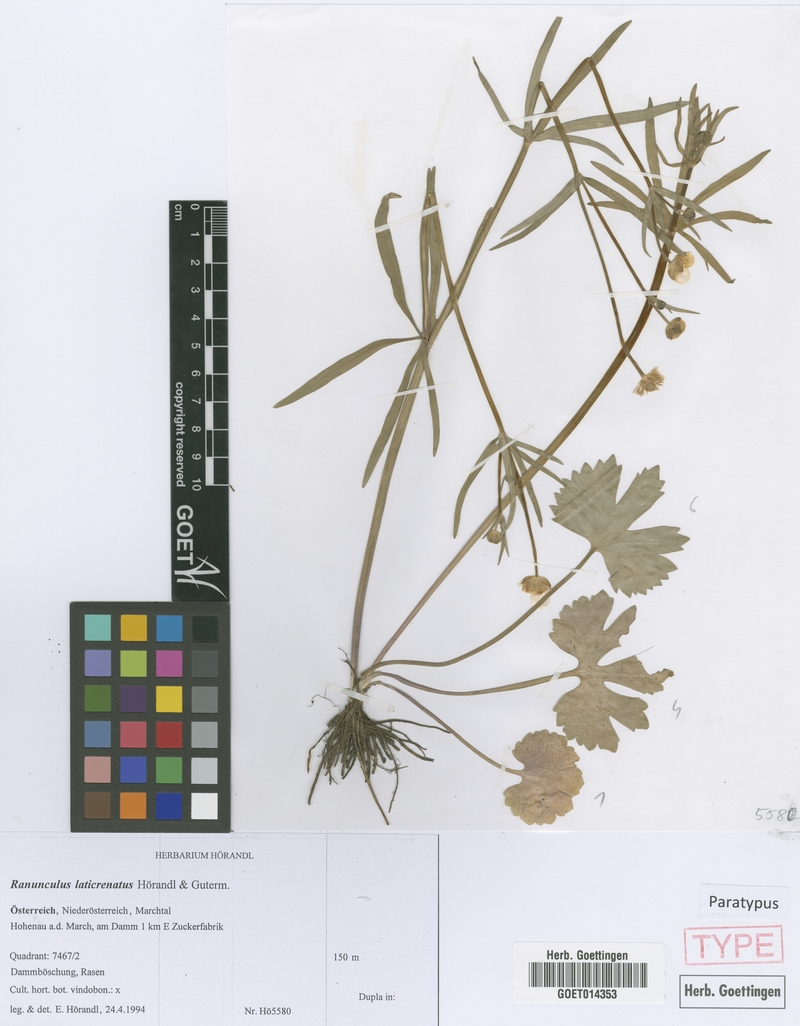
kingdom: Plantae
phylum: Tracheophyta
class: Magnoliopsida
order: Ranunculales
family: Ranunculaceae
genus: Ranunculus
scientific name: Ranunculus laticrenatus
